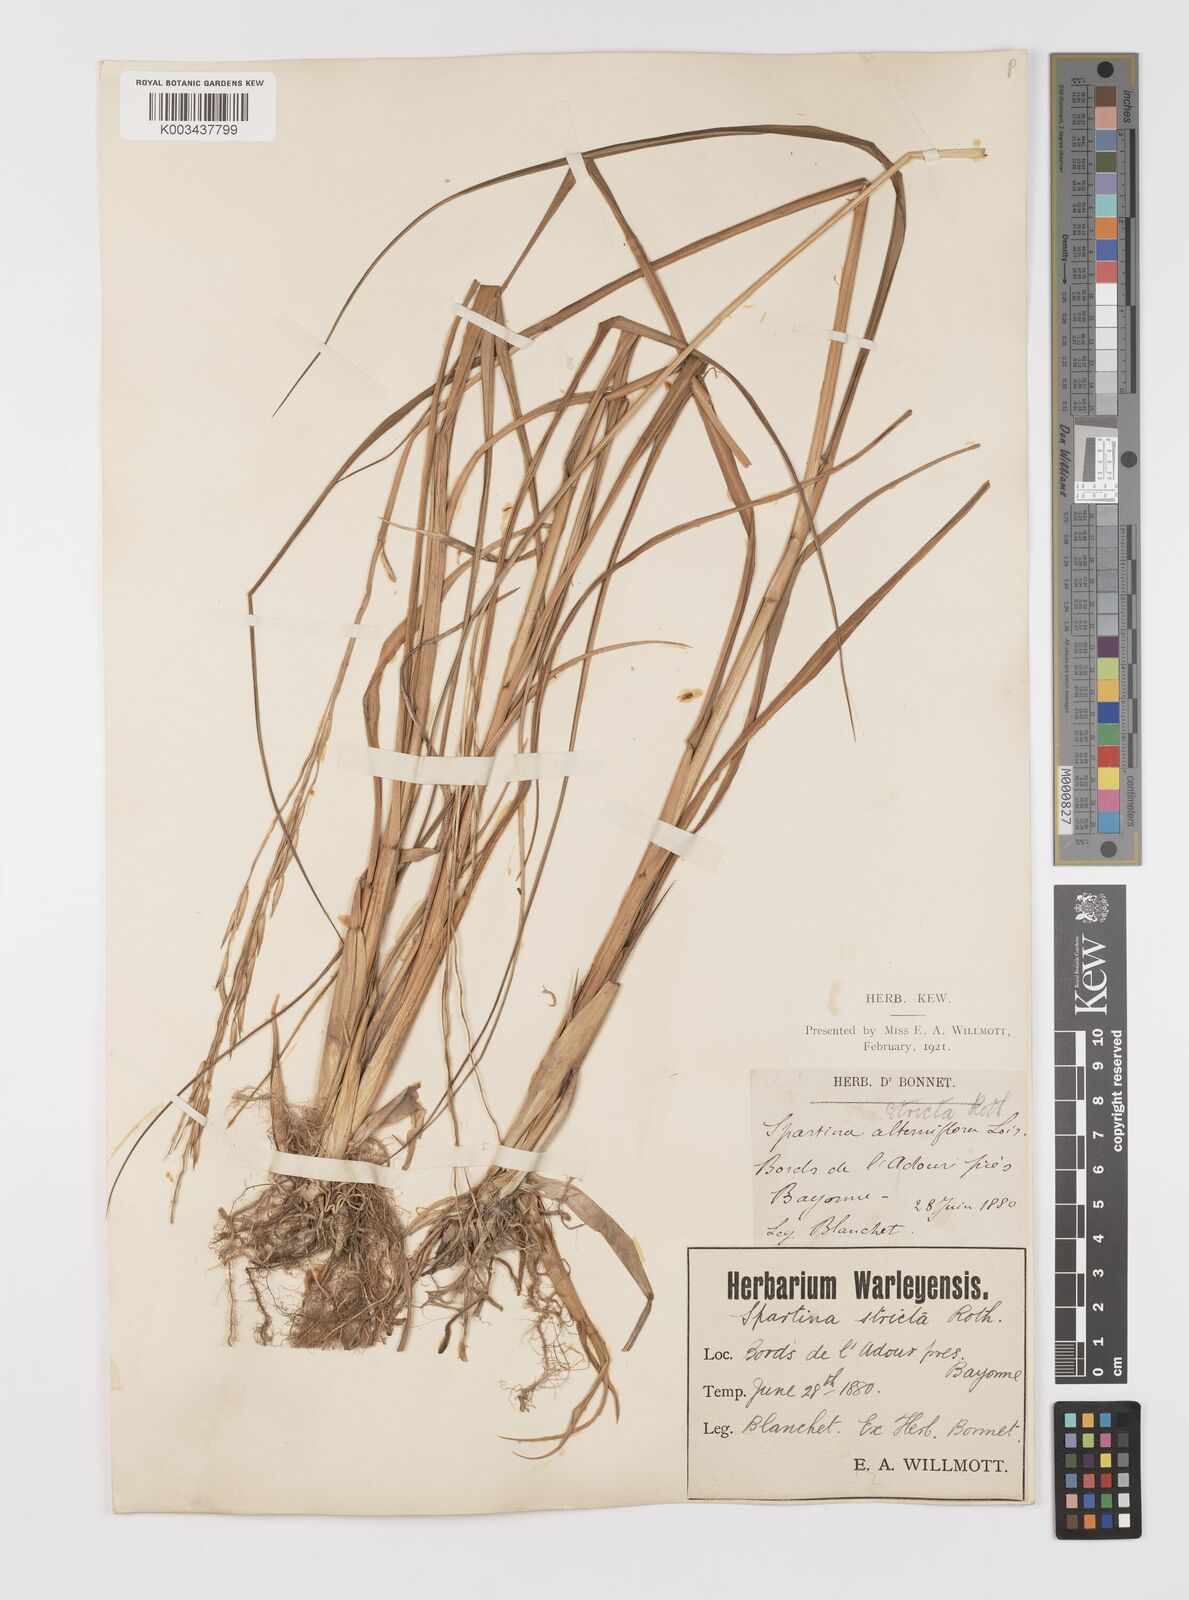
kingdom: Plantae
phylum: Tracheophyta
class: Liliopsida
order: Poales
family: Poaceae
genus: Sporobolus
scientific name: Sporobolus alterniflorus
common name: Atlantic cordgrass
